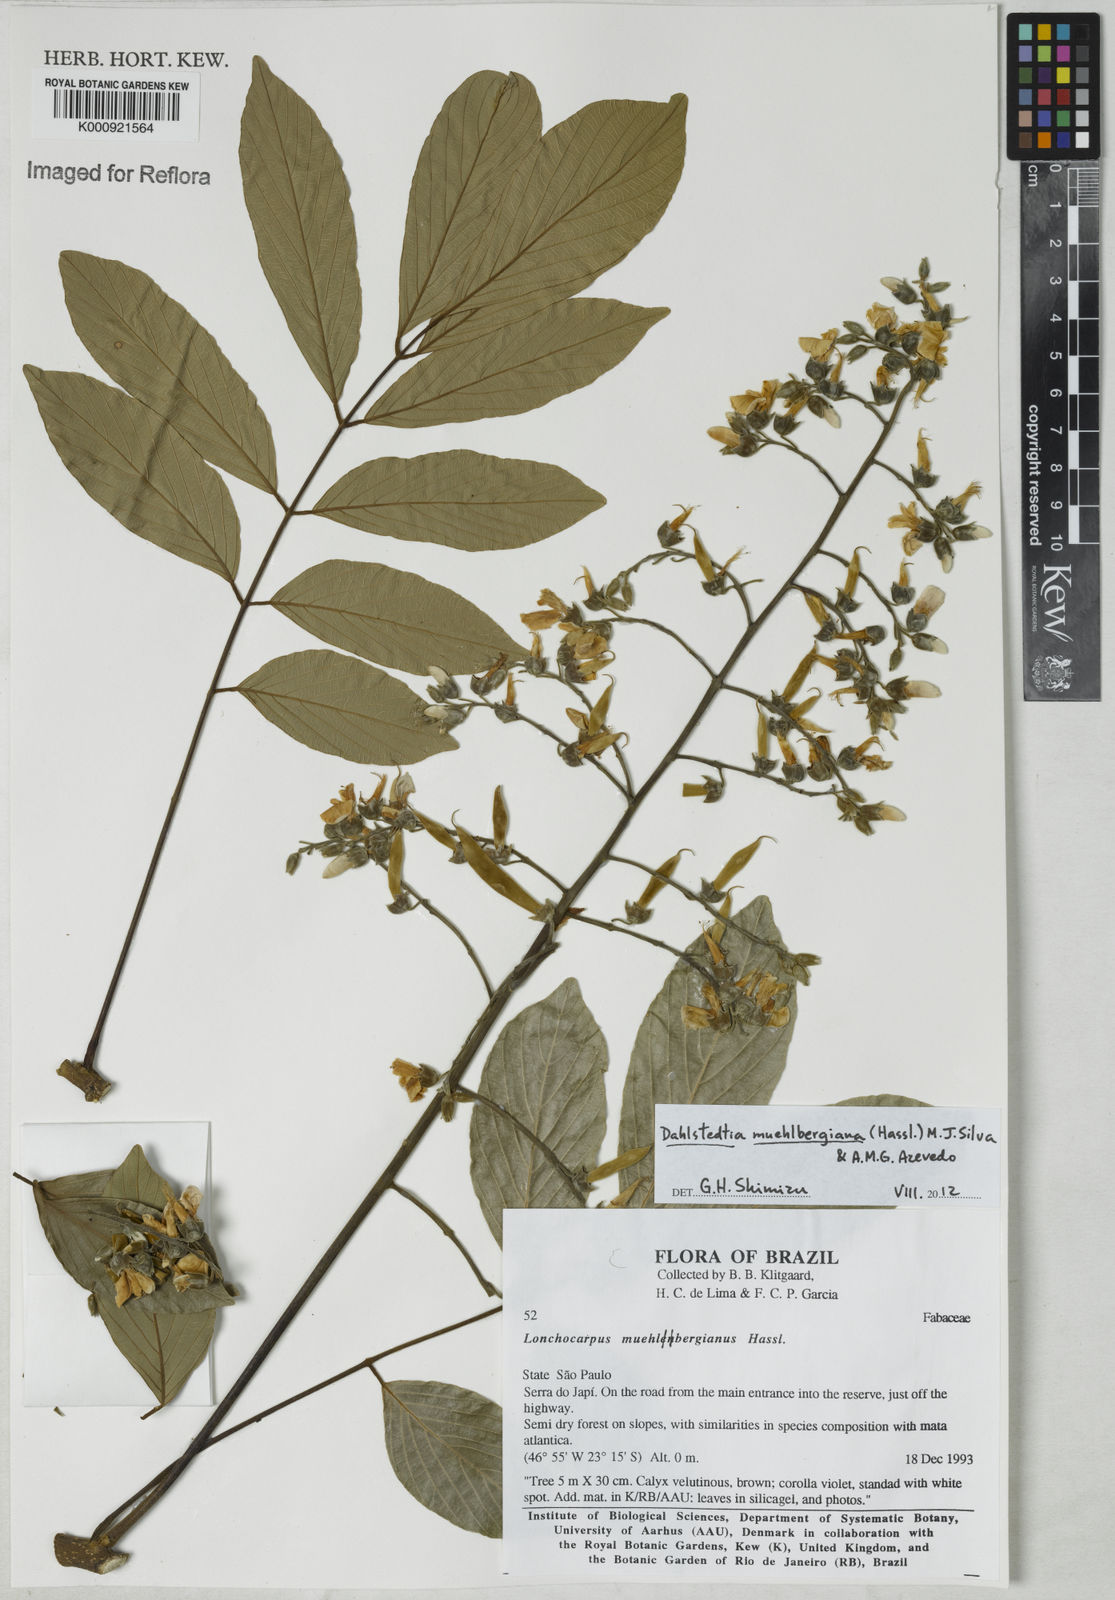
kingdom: Plantae
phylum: Tracheophyta
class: Magnoliopsida
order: Fabales
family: Fabaceae
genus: Dahlstedtia
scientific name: Dahlstedtia muehlbergiana
